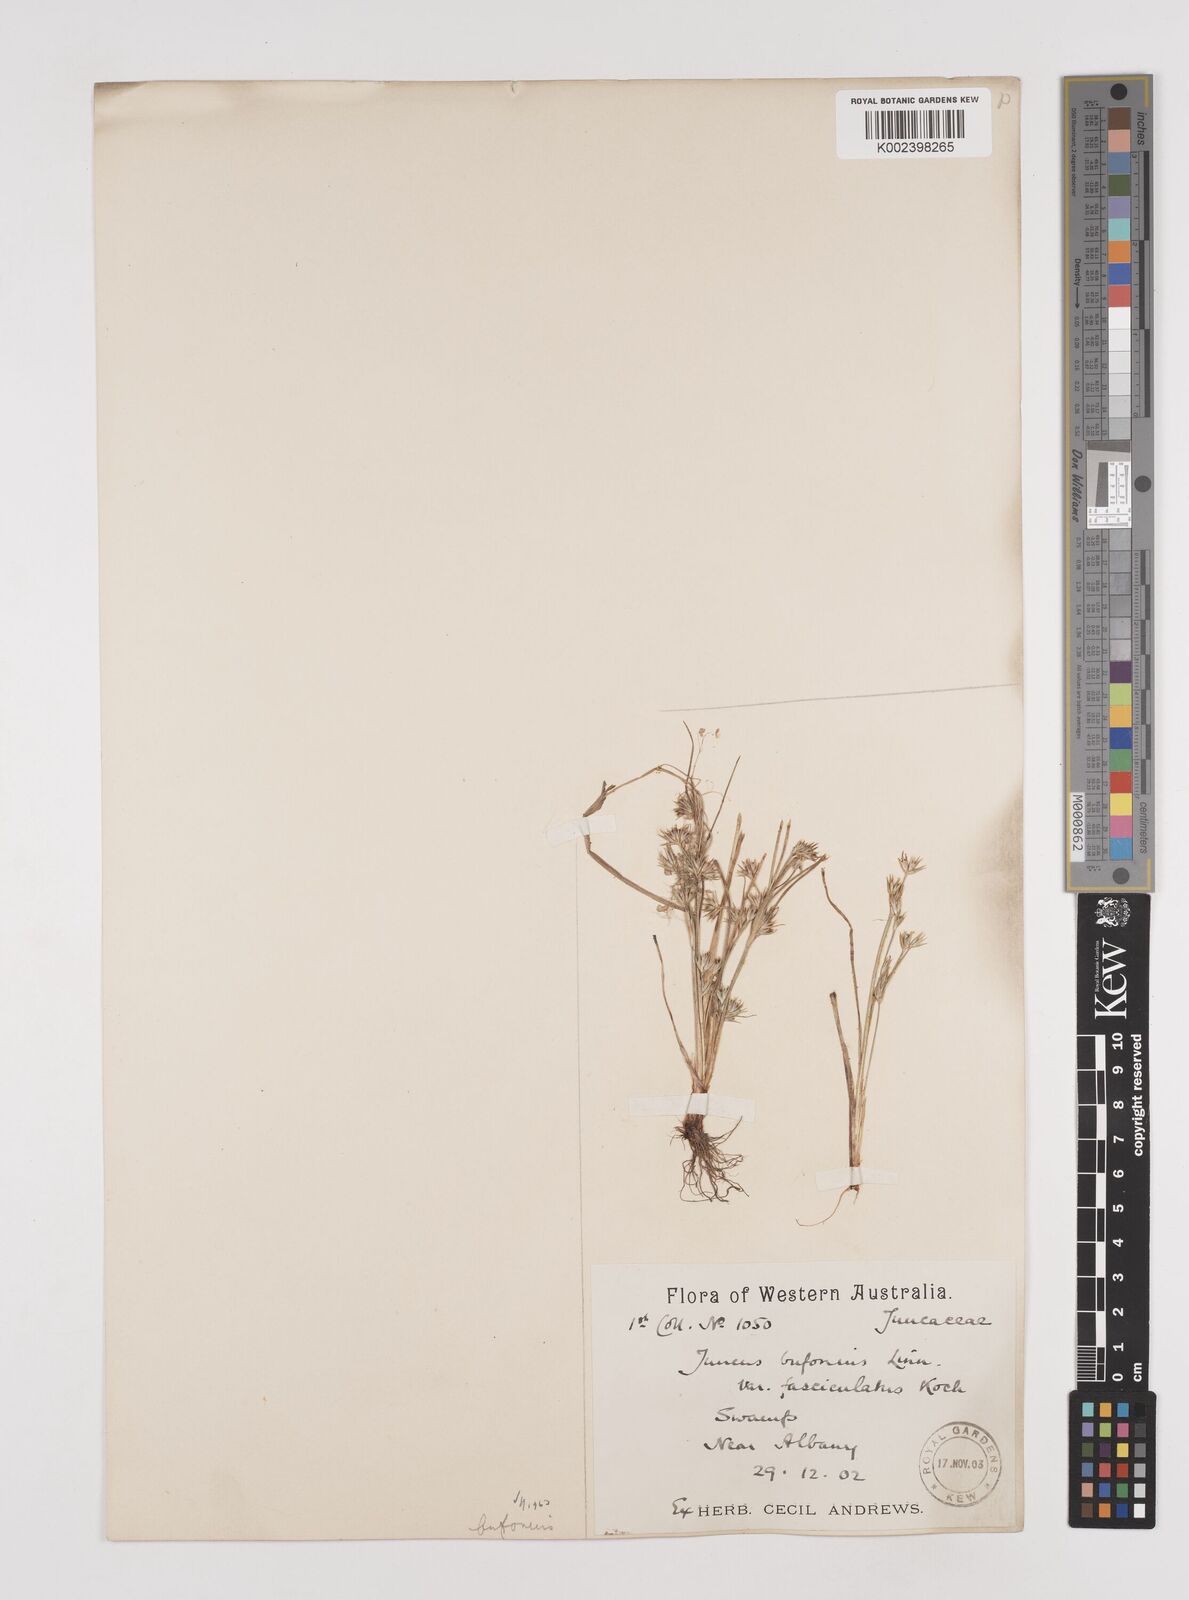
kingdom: Plantae
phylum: Tracheophyta
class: Liliopsida
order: Poales
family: Juncaceae
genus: Juncus
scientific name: Juncus bufonius
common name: Toad rush
